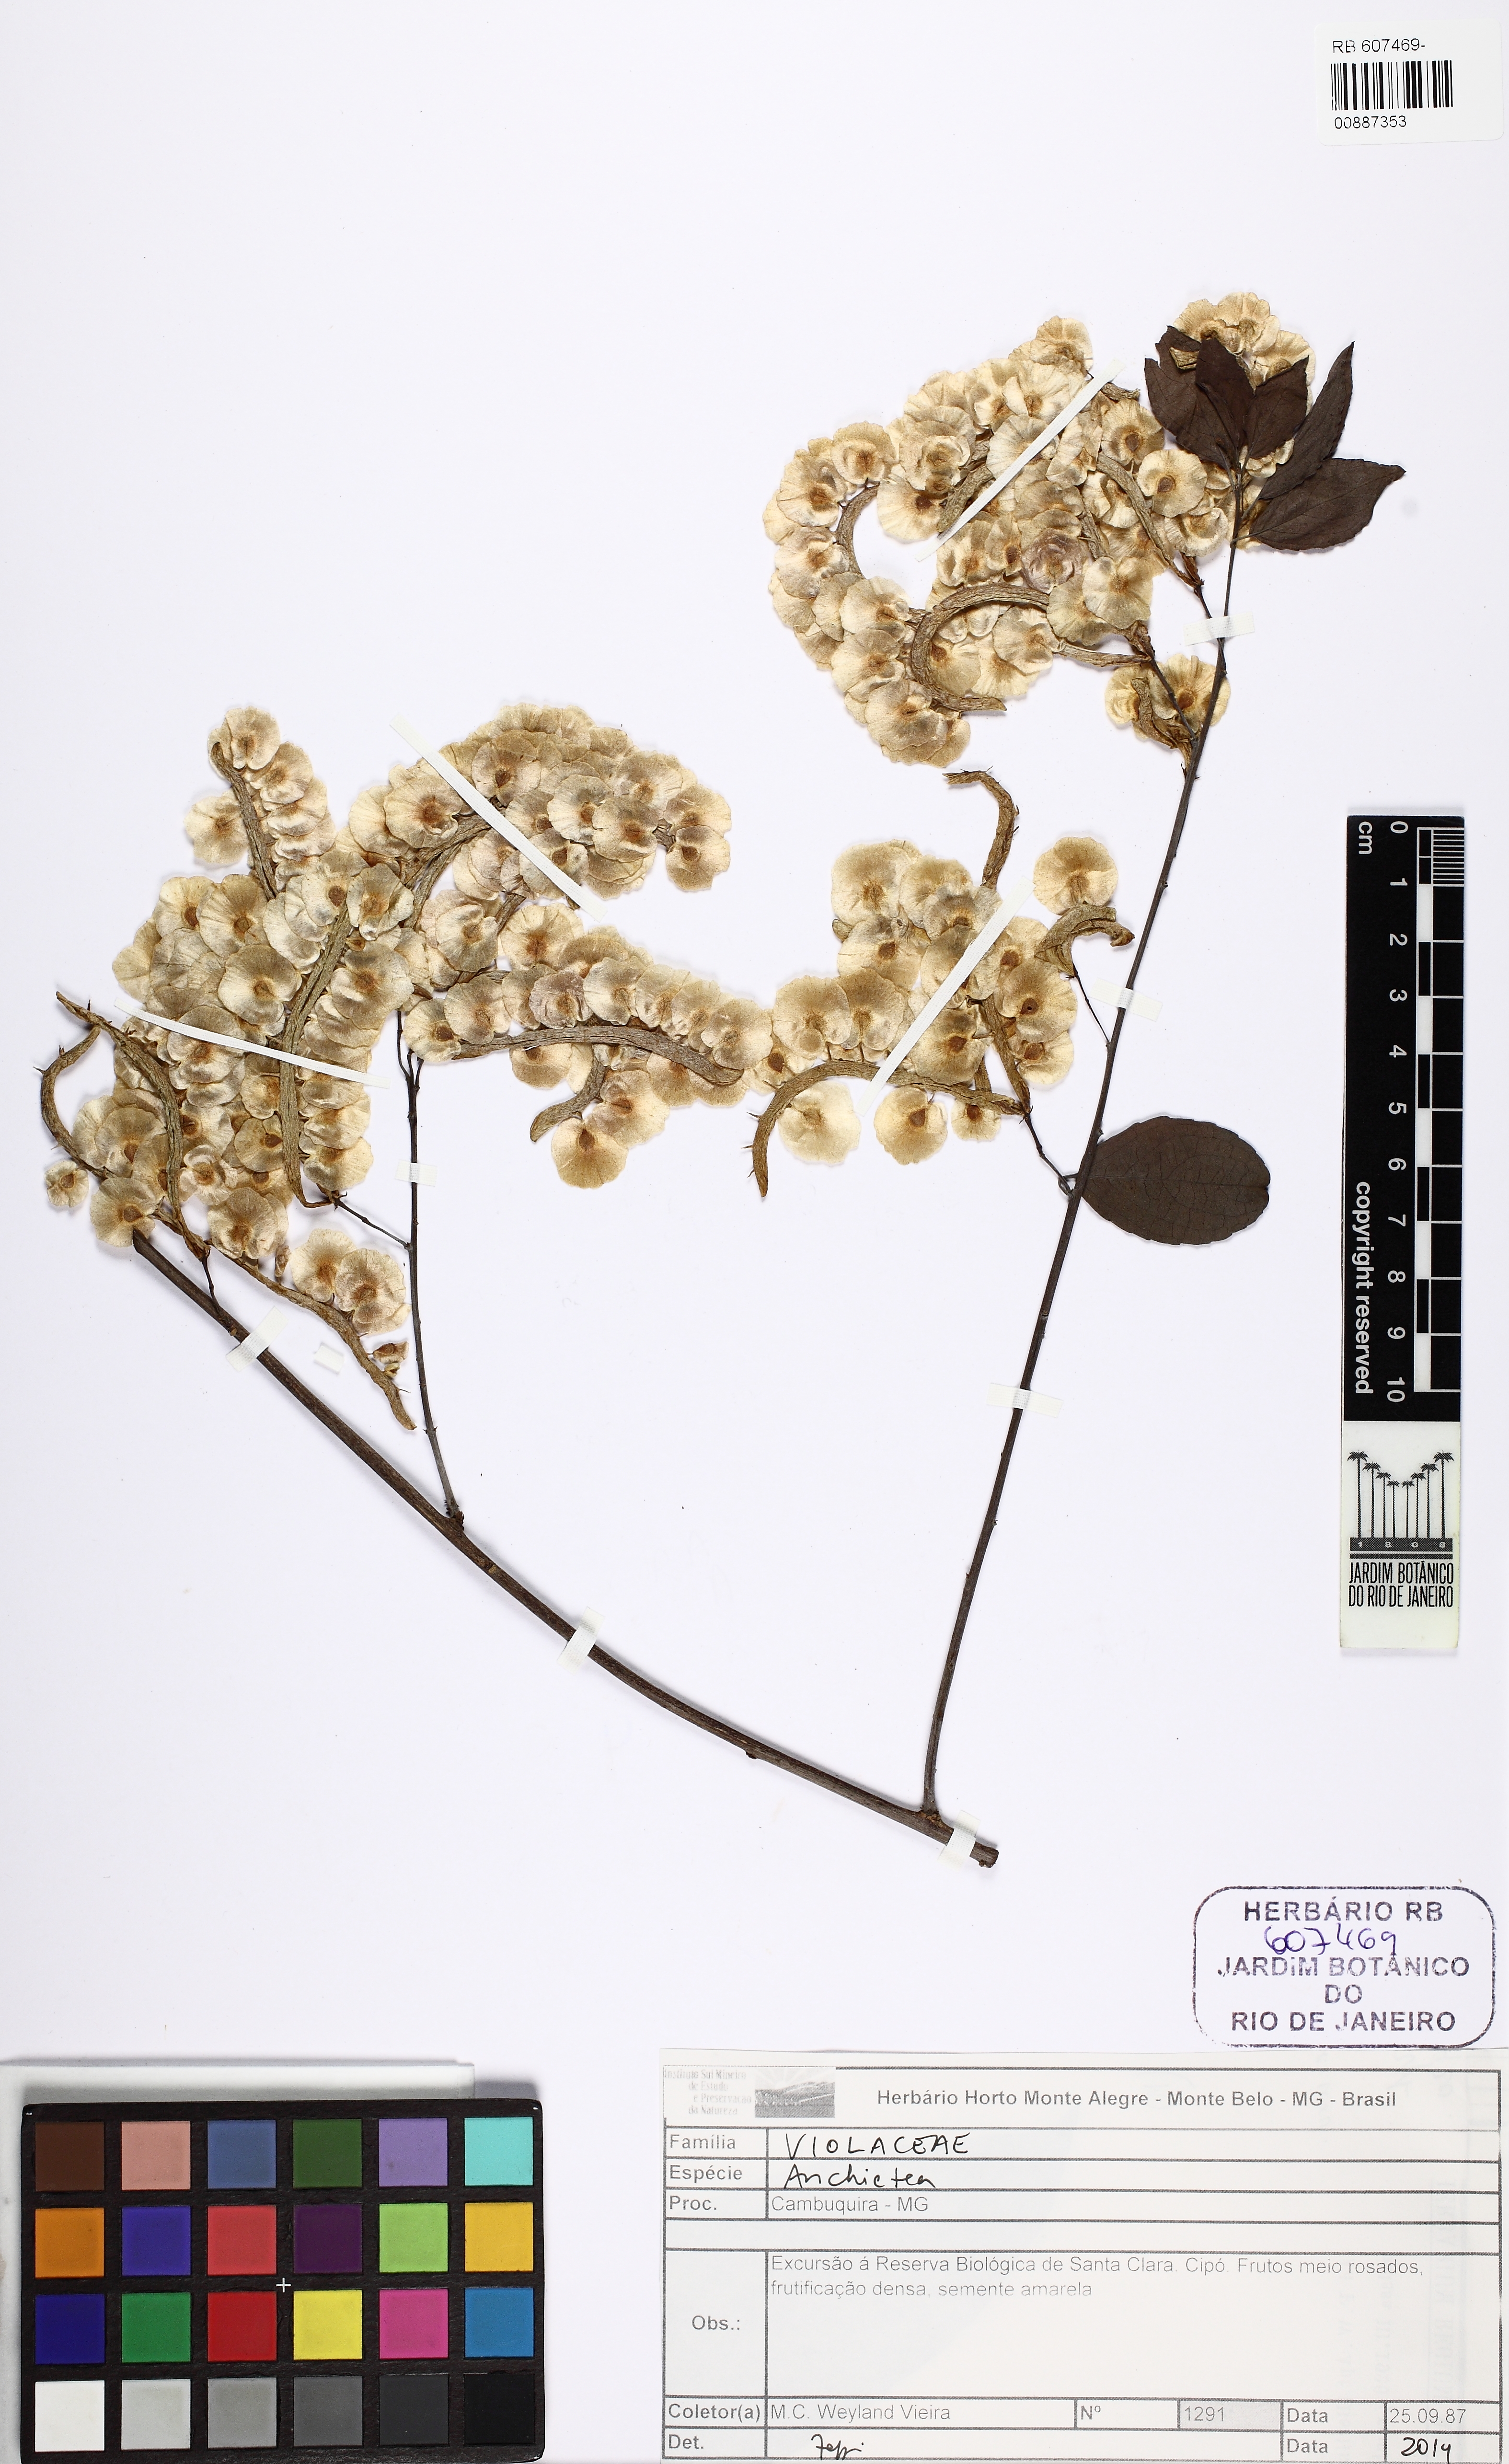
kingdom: Plantae
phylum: Tracheophyta
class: Magnoliopsida
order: Malpighiales
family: Violaceae
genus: Anchietea
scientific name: Anchietea
